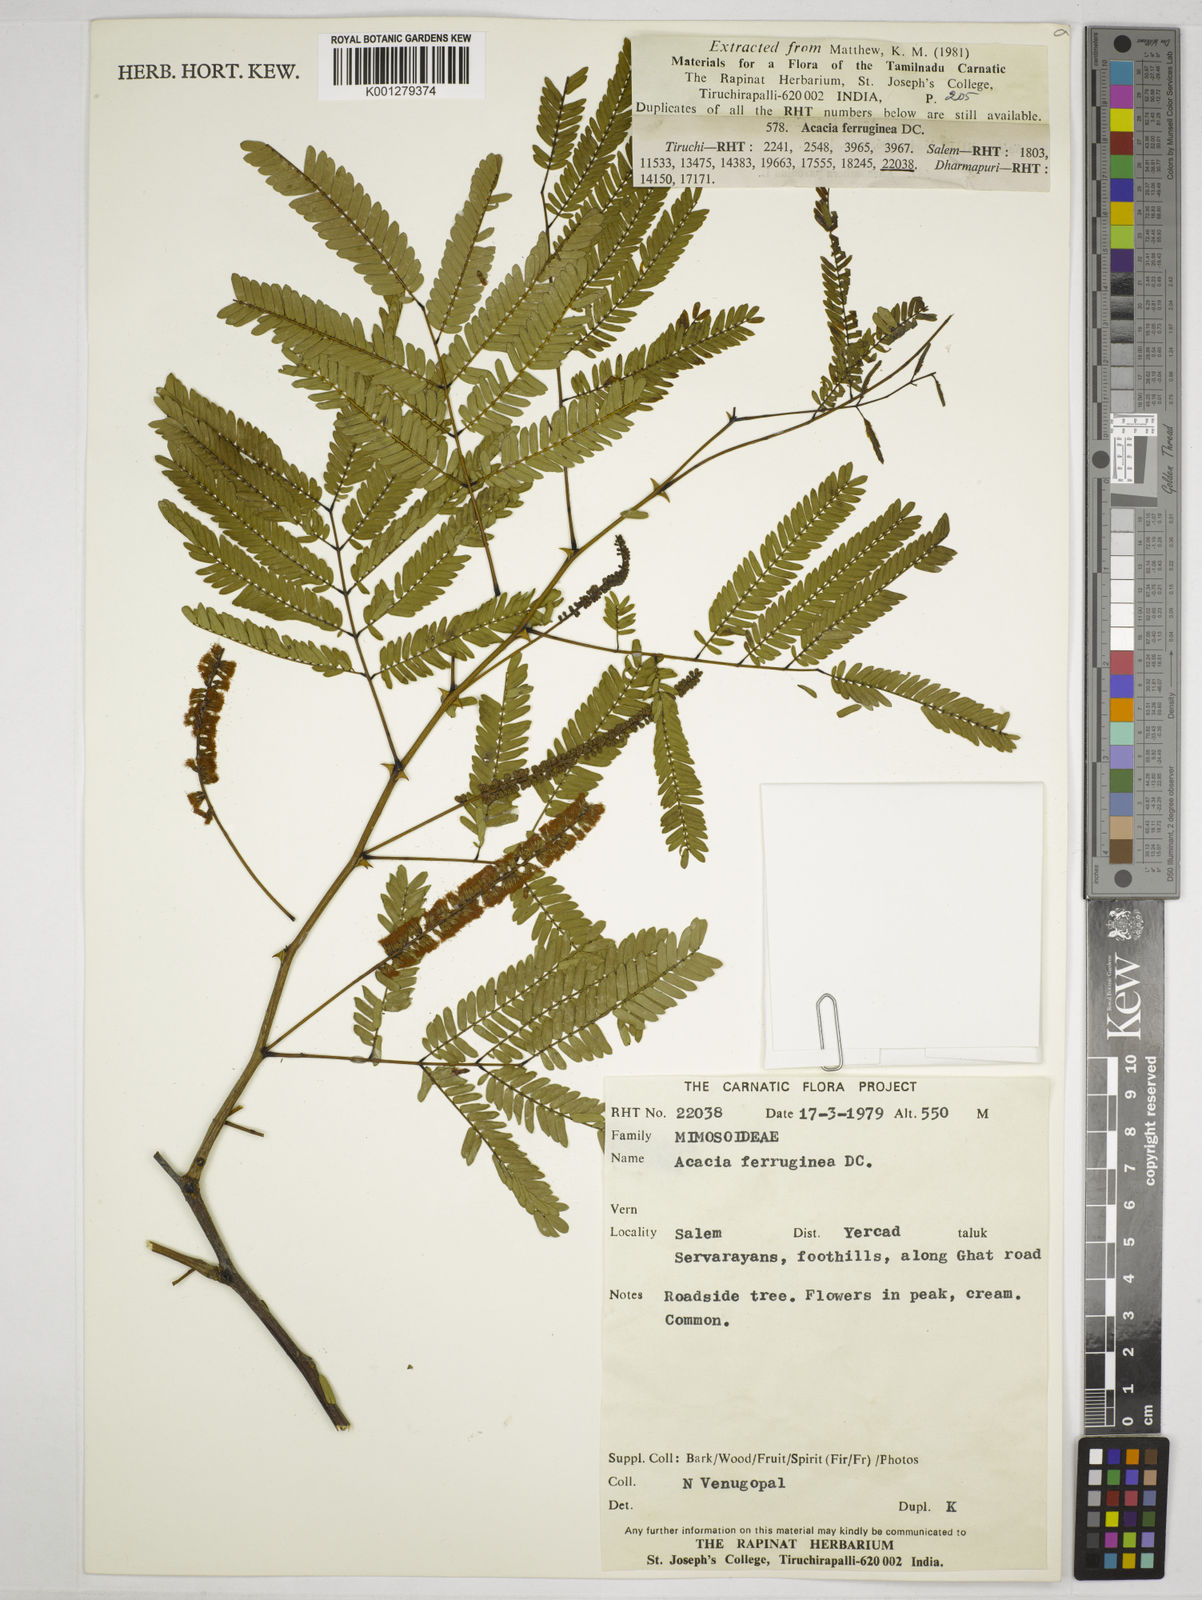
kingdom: Plantae
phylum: Tracheophyta
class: Magnoliopsida
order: Fabales
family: Fabaceae
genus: Senegalia
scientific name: Senegalia ferruginea
